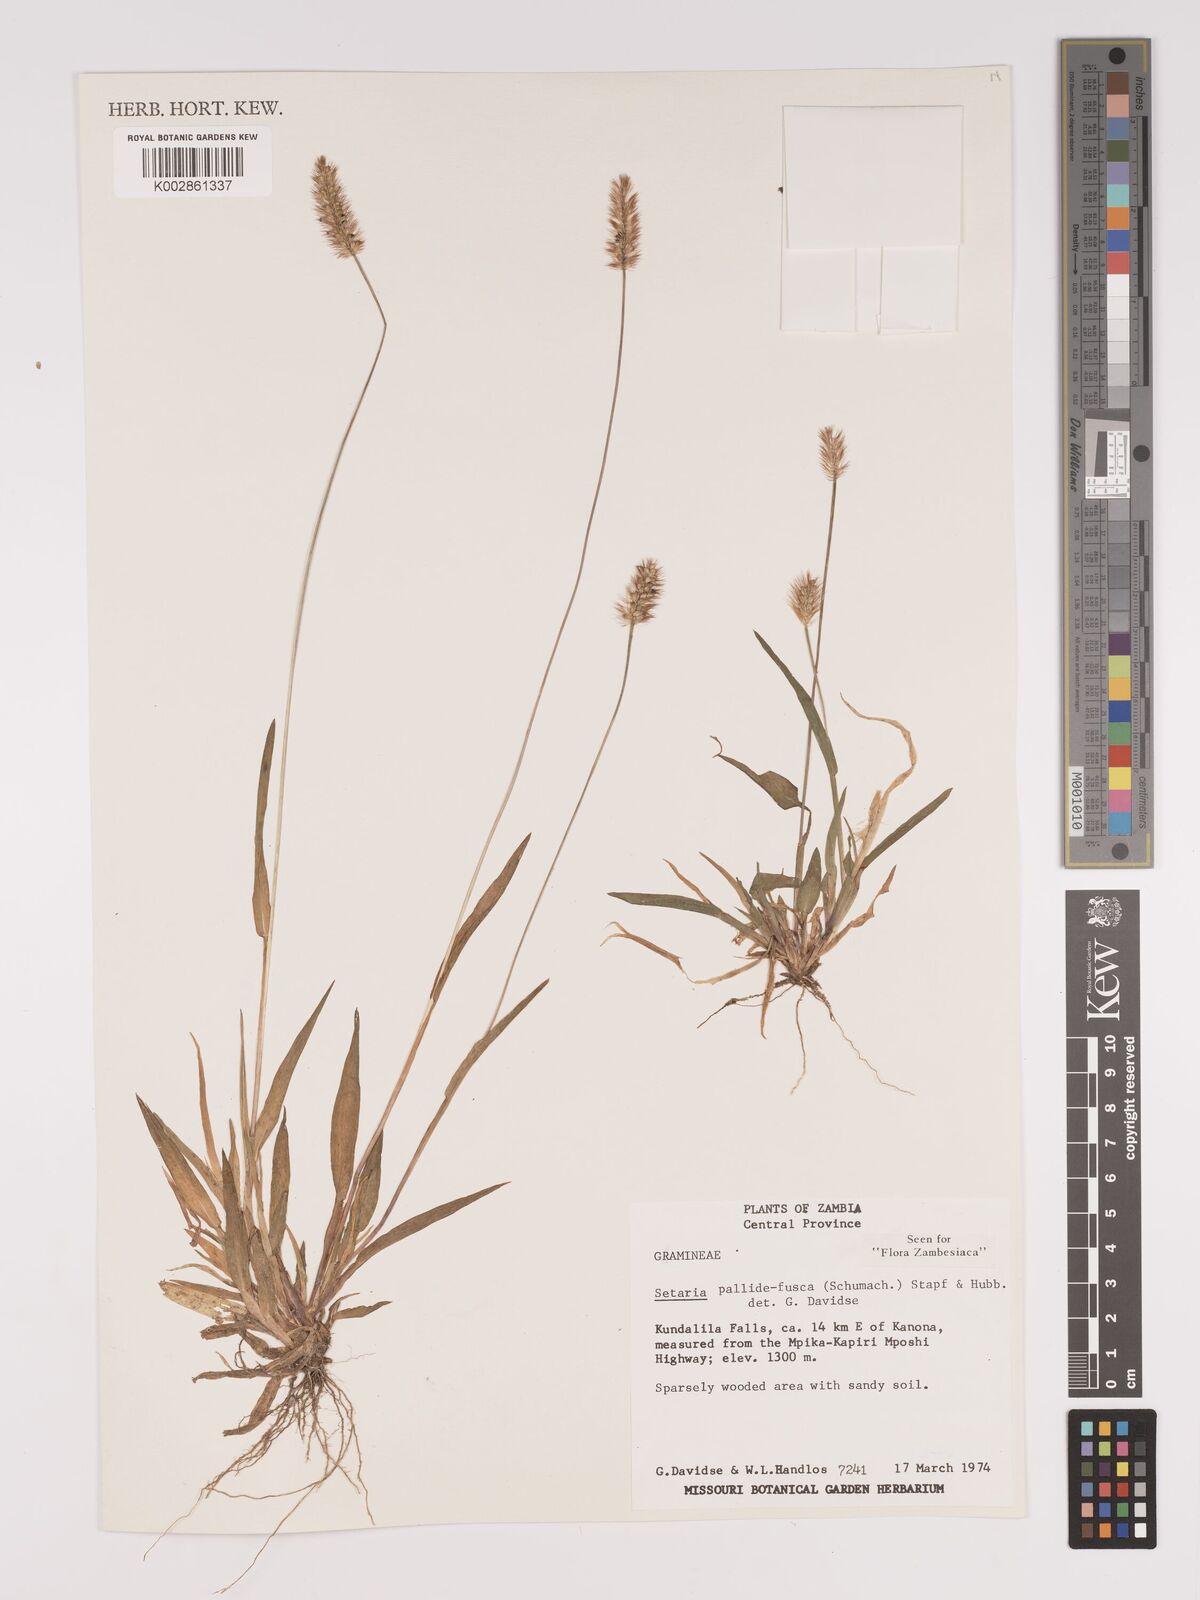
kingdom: Plantae
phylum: Tracheophyta
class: Liliopsida
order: Poales
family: Poaceae
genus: Setaria
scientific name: Setaria pumila
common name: Yellow bristle-grass
